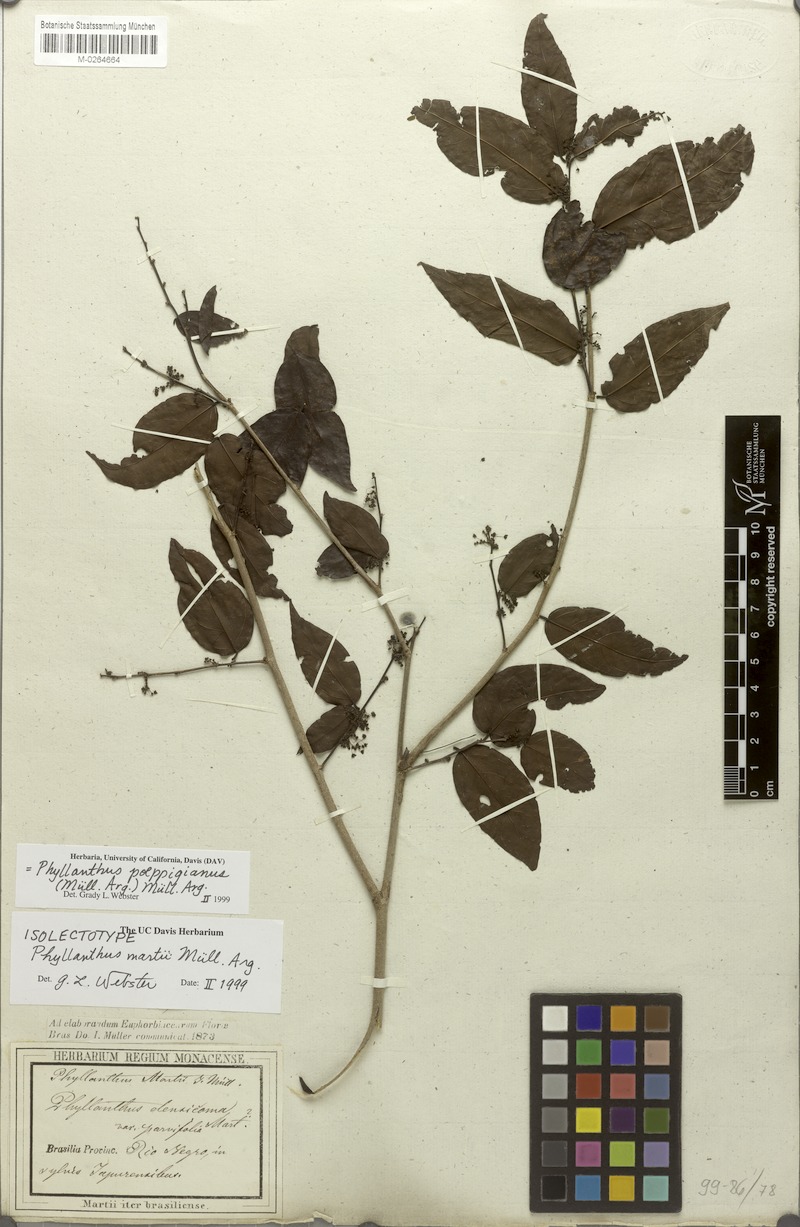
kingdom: Plantae
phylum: Tracheophyta
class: Magnoliopsida
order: Malpighiales
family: Phyllanthaceae
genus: Phyllanthus
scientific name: Phyllanthus poeppigianus
